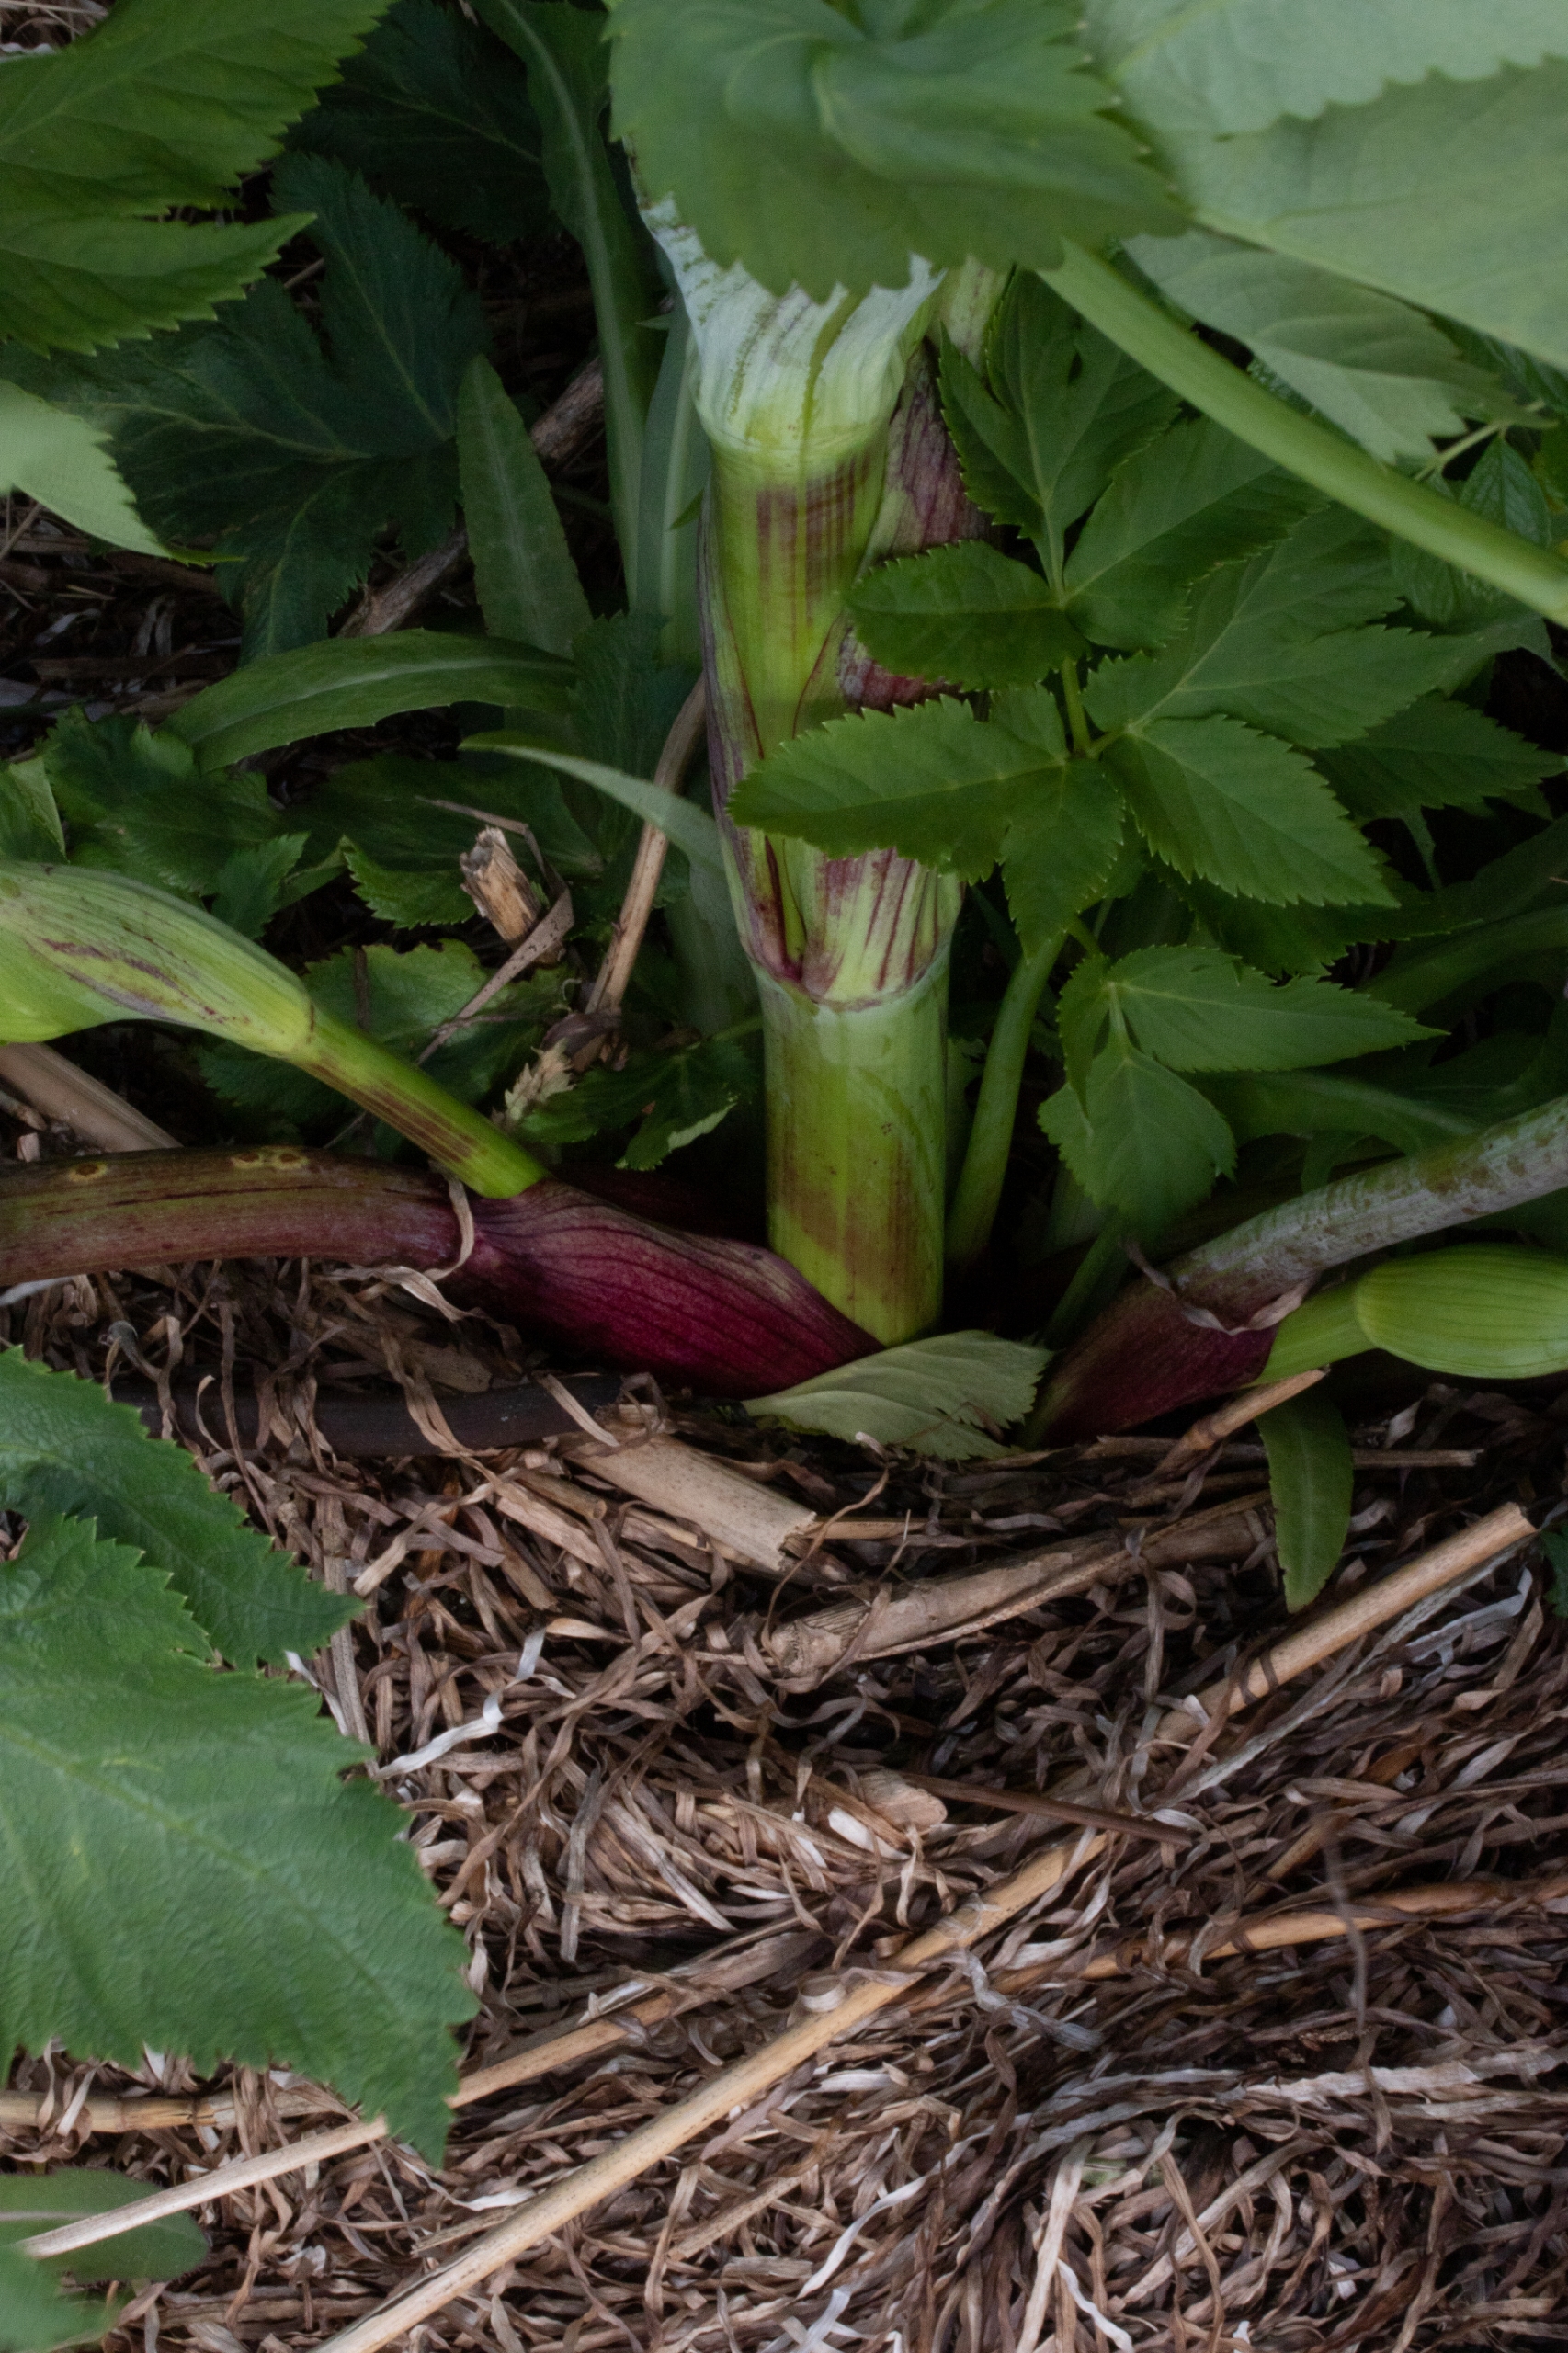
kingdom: Plantae
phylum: Tracheophyta
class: Magnoliopsida
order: Apiales
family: Apiaceae
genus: Pastinaca
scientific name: Pastinaca sativa
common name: Pastinak
